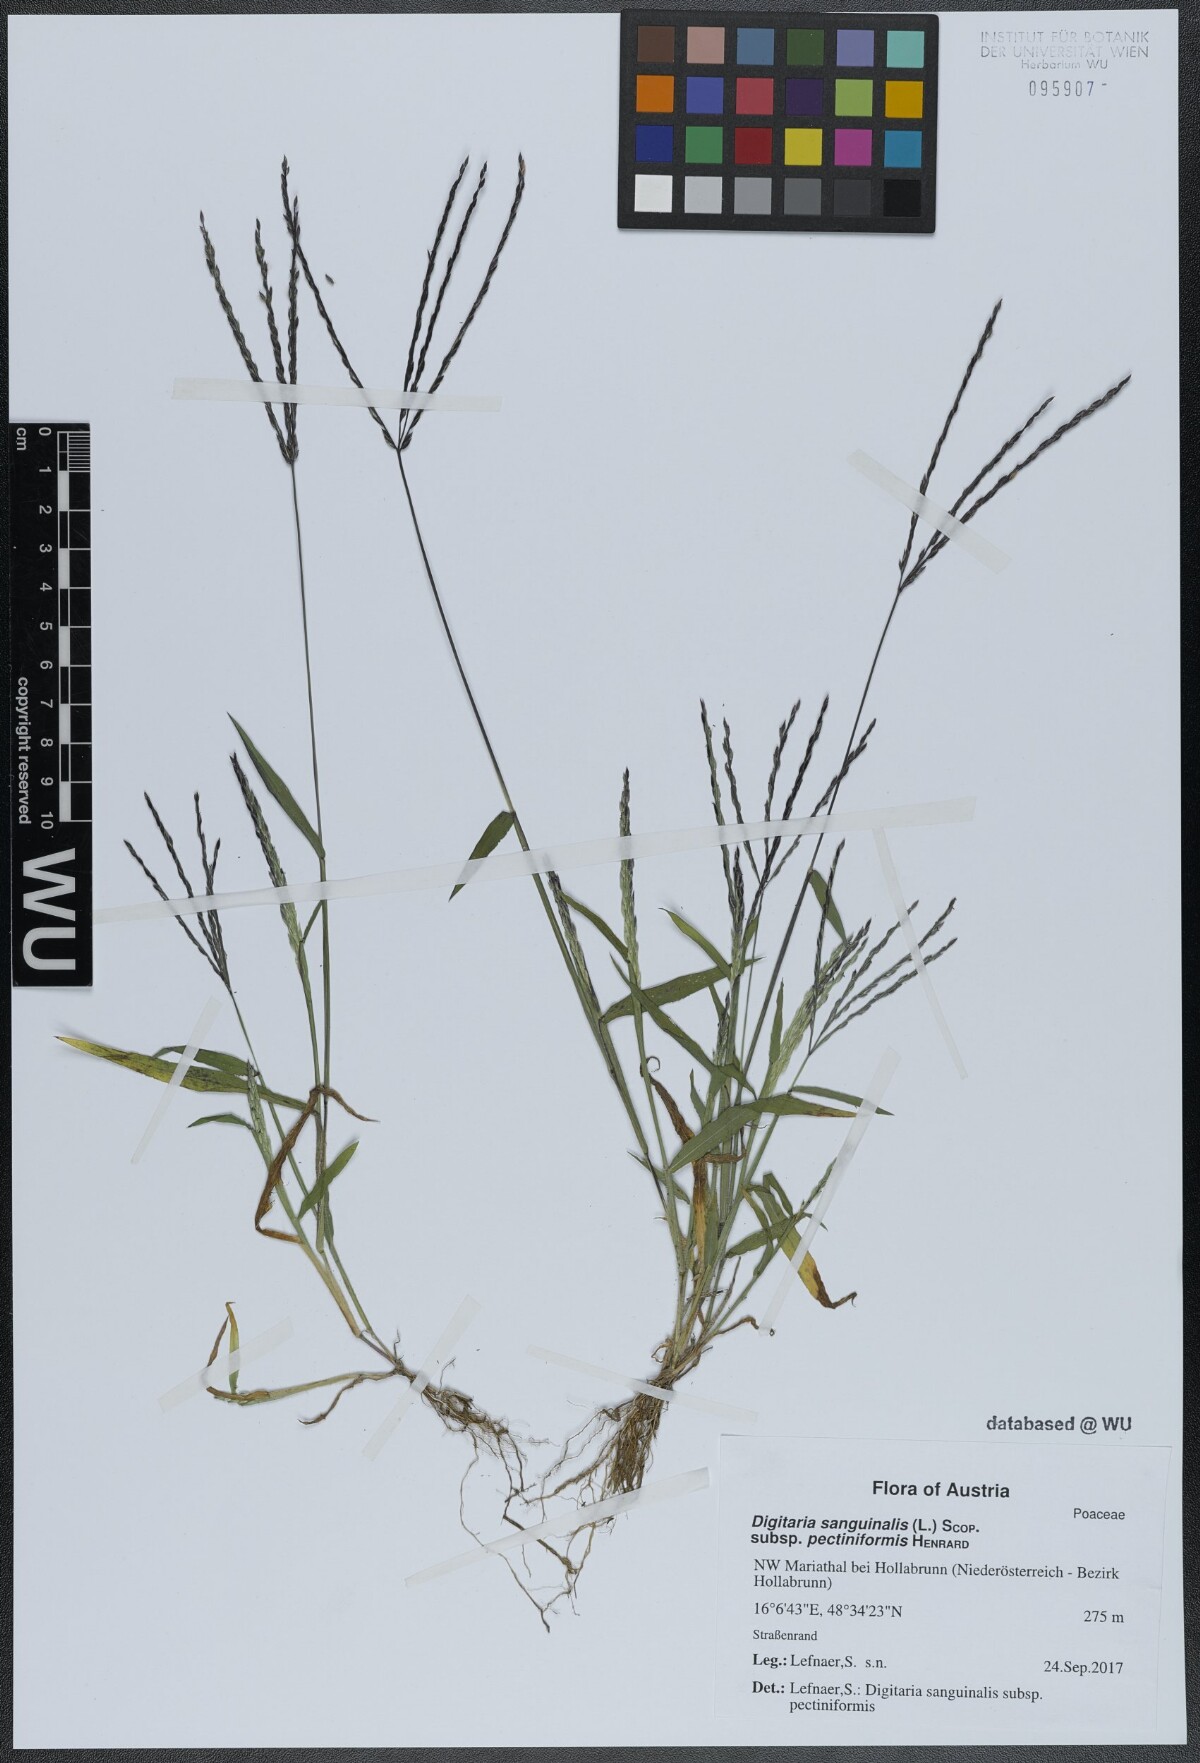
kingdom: Plantae
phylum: Tracheophyta
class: Liliopsida
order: Poales
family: Poaceae
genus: Digitaria
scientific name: Digitaria sanguinalis
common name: Hairy crabgrass
